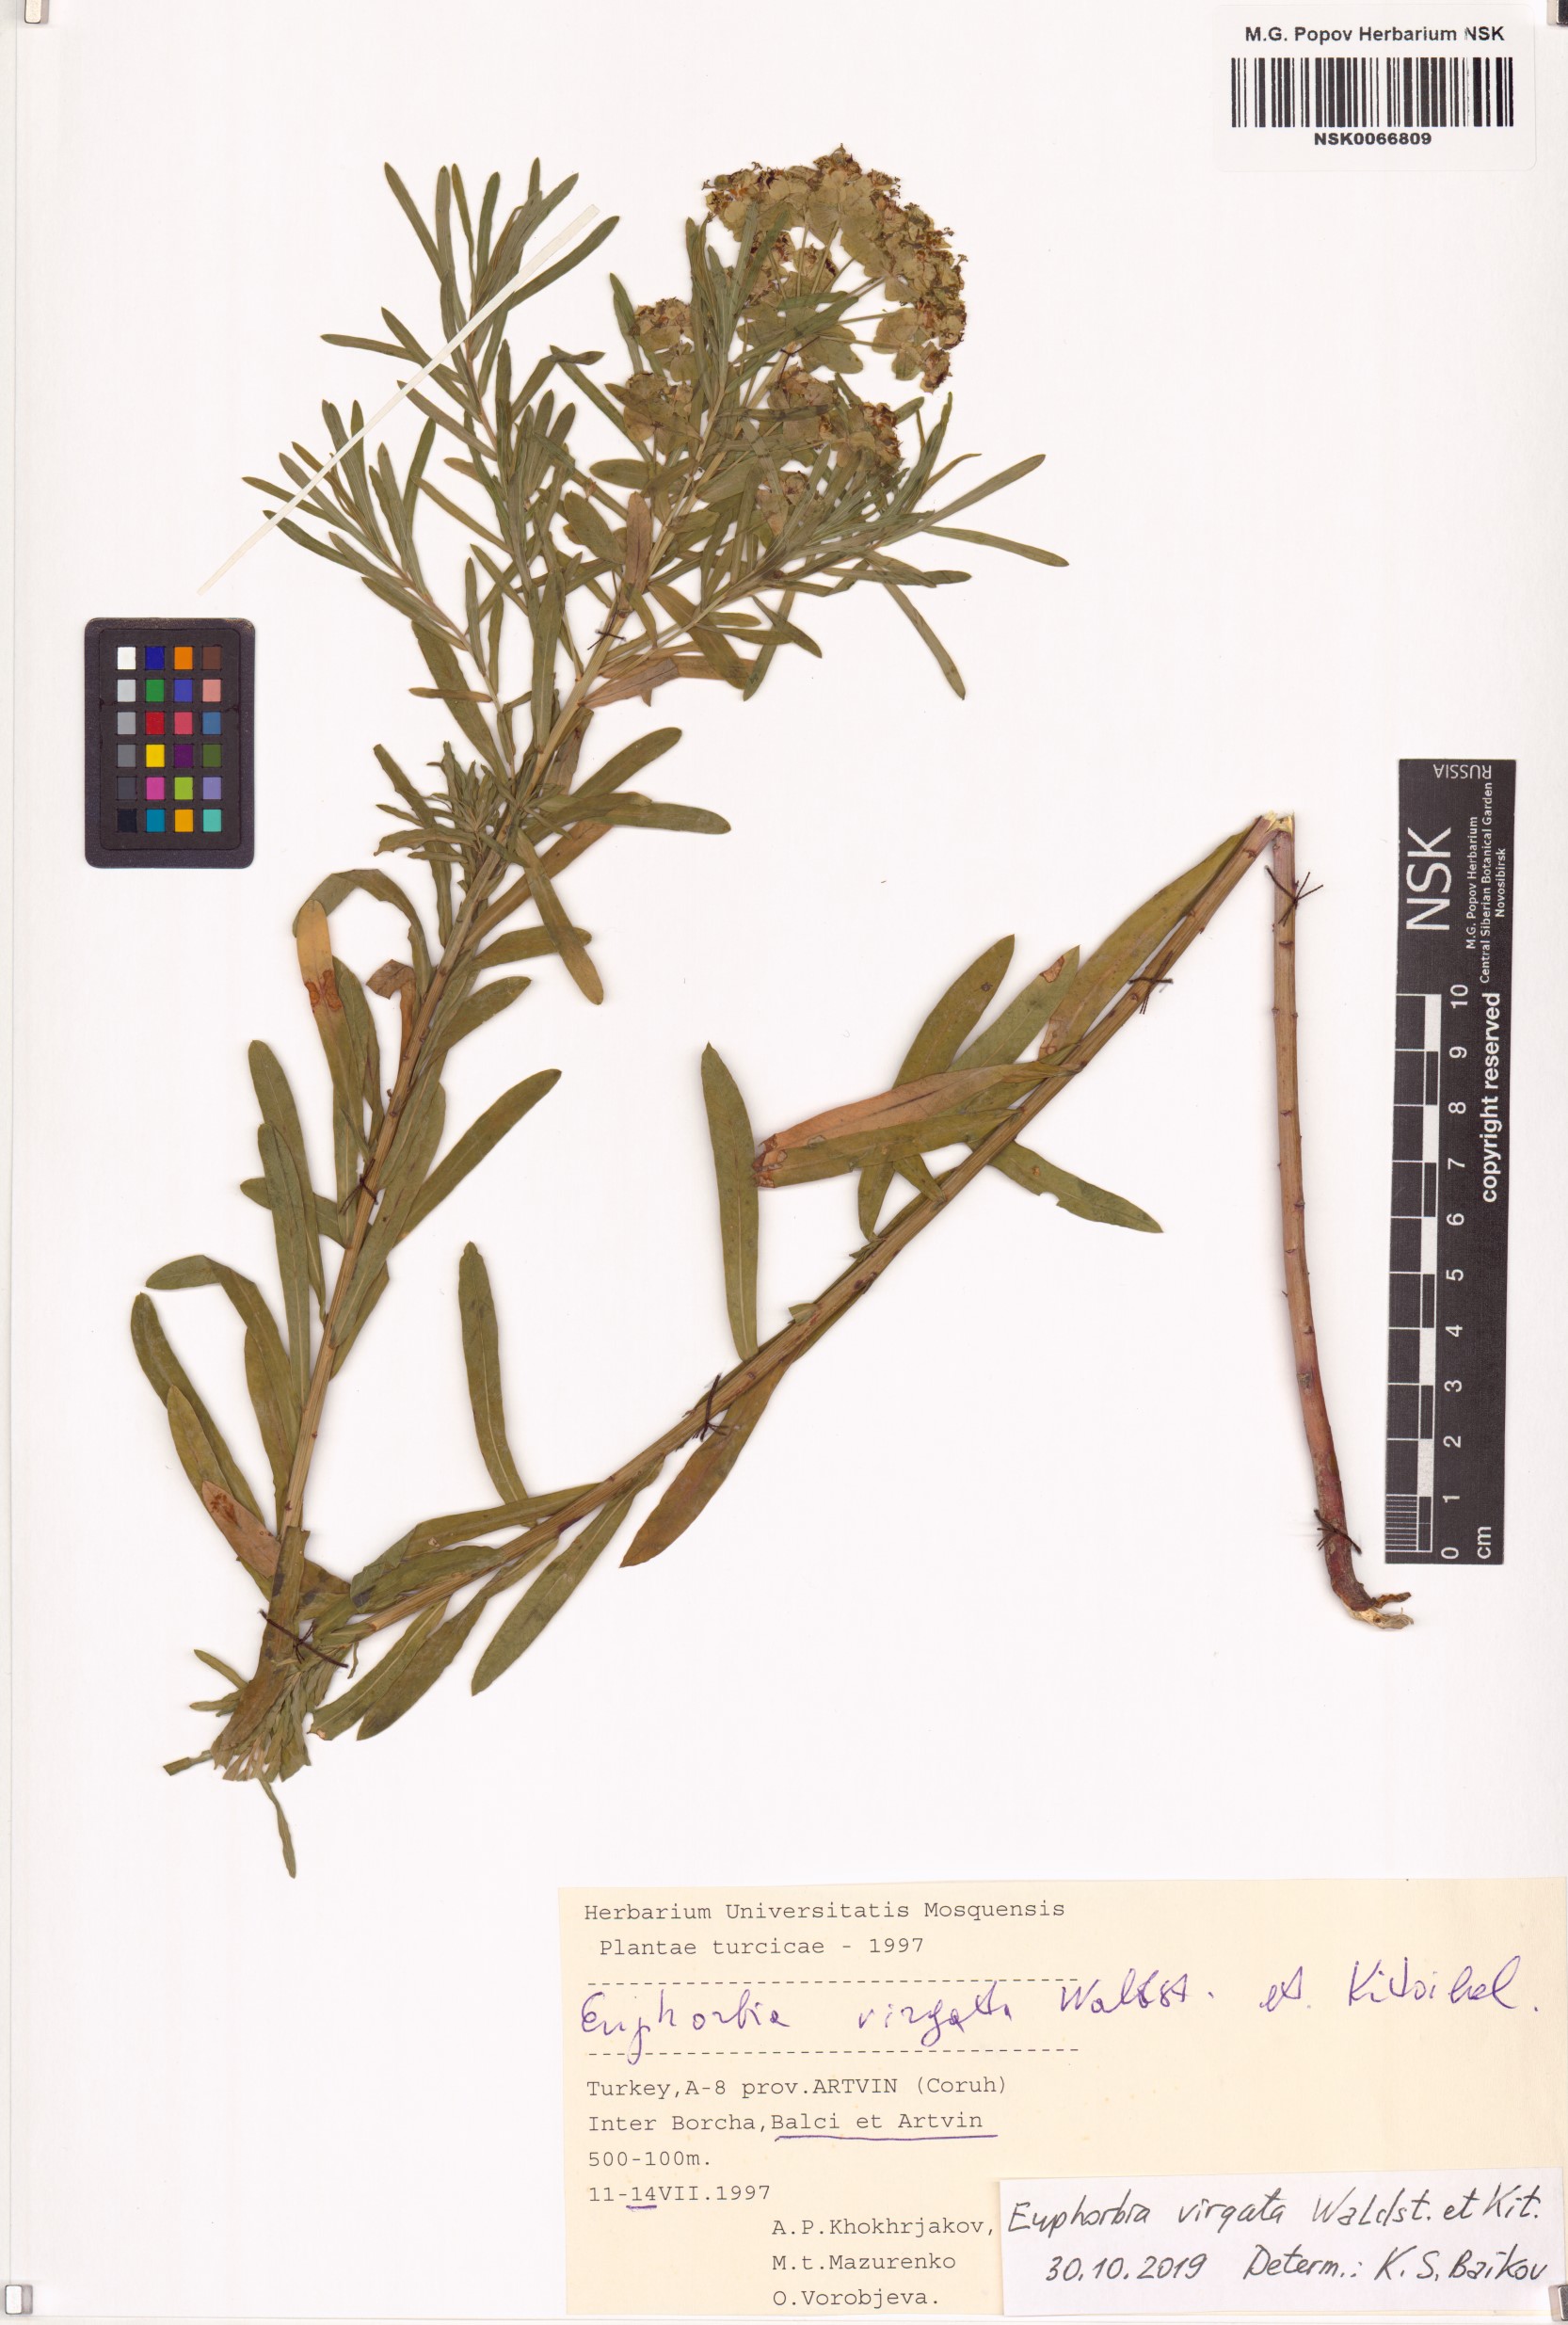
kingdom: Plantae
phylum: Tracheophyta
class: Magnoliopsida
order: Malpighiales
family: Euphorbiaceae
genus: Euphorbia
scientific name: Euphorbia virgata
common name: Leafy spurge
